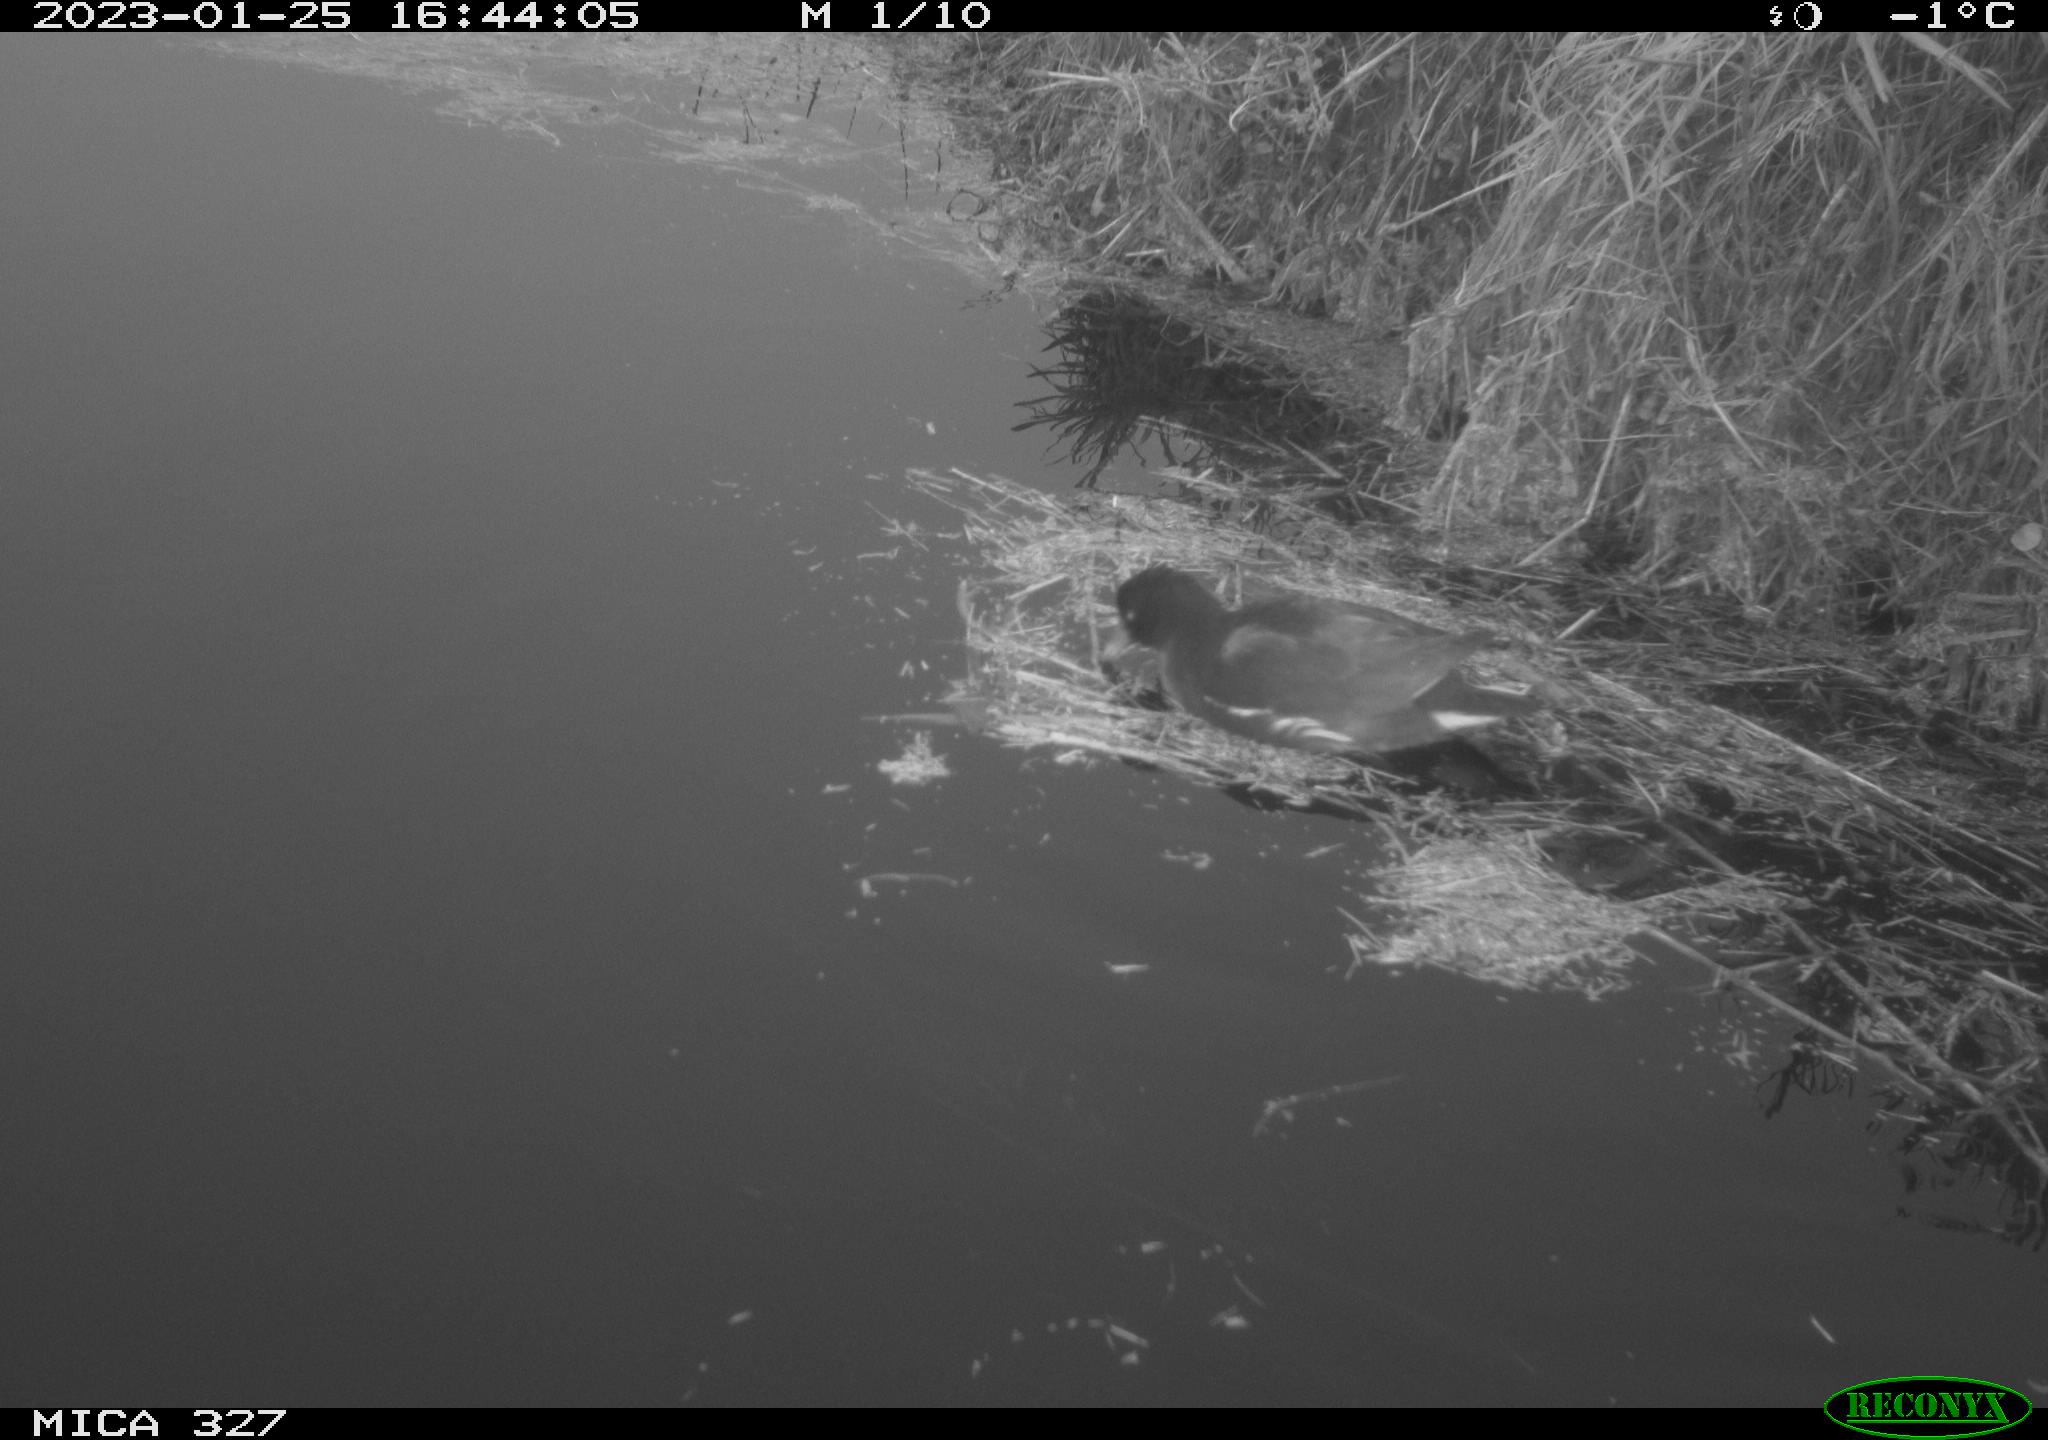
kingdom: Animalia
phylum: Chordata
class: Aves
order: Gruiformes
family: Rallidae
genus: Gallinula
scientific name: Gallinula chloropus
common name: Common moorhen
